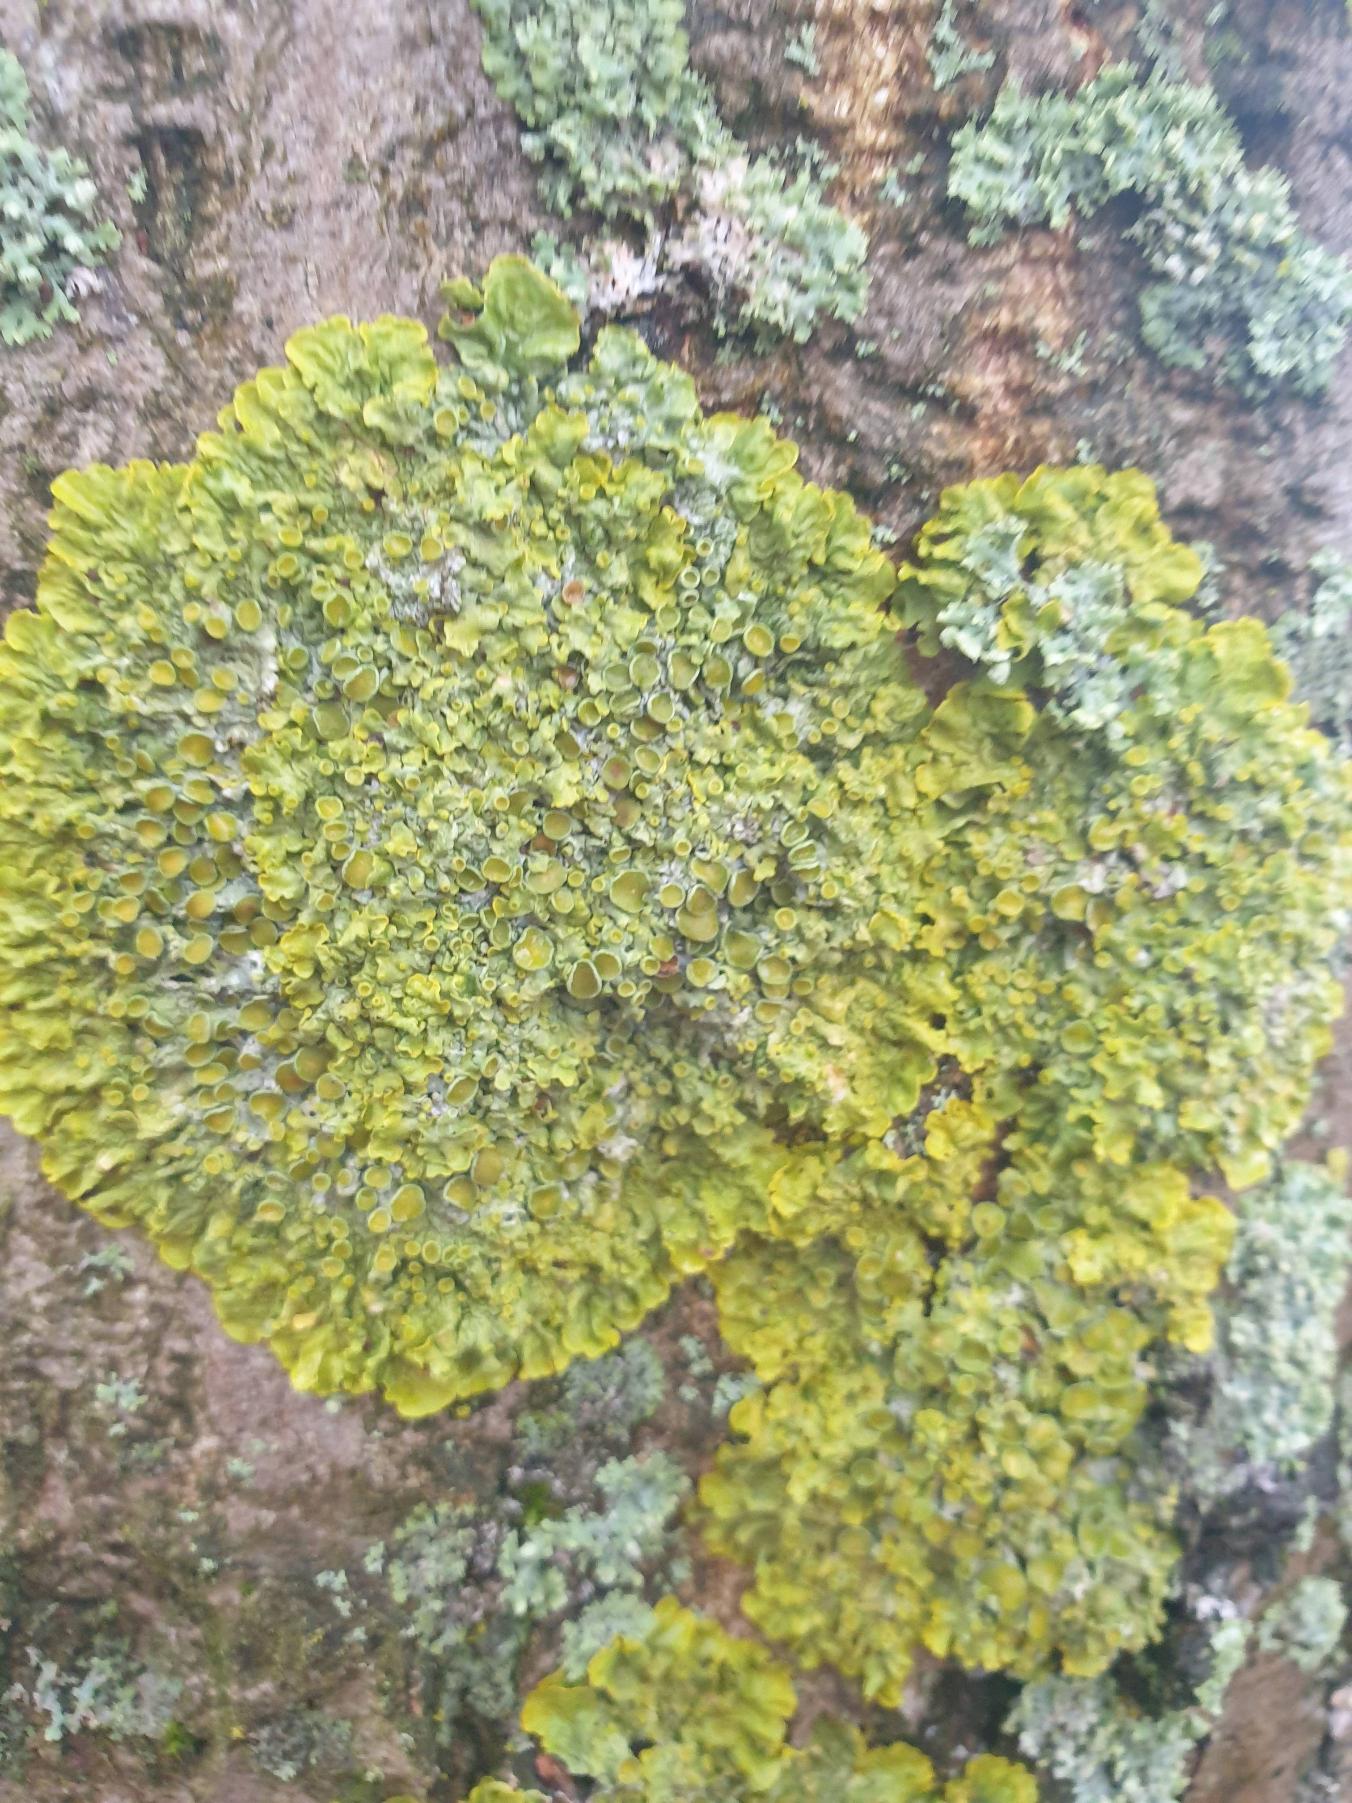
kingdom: Fungi
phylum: Ascomycota
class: Lecanoromycetes
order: Teloschistales
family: Teloschistaceae
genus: Xanthoria
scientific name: Xanthoria parietina
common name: Almindelig væggelav
